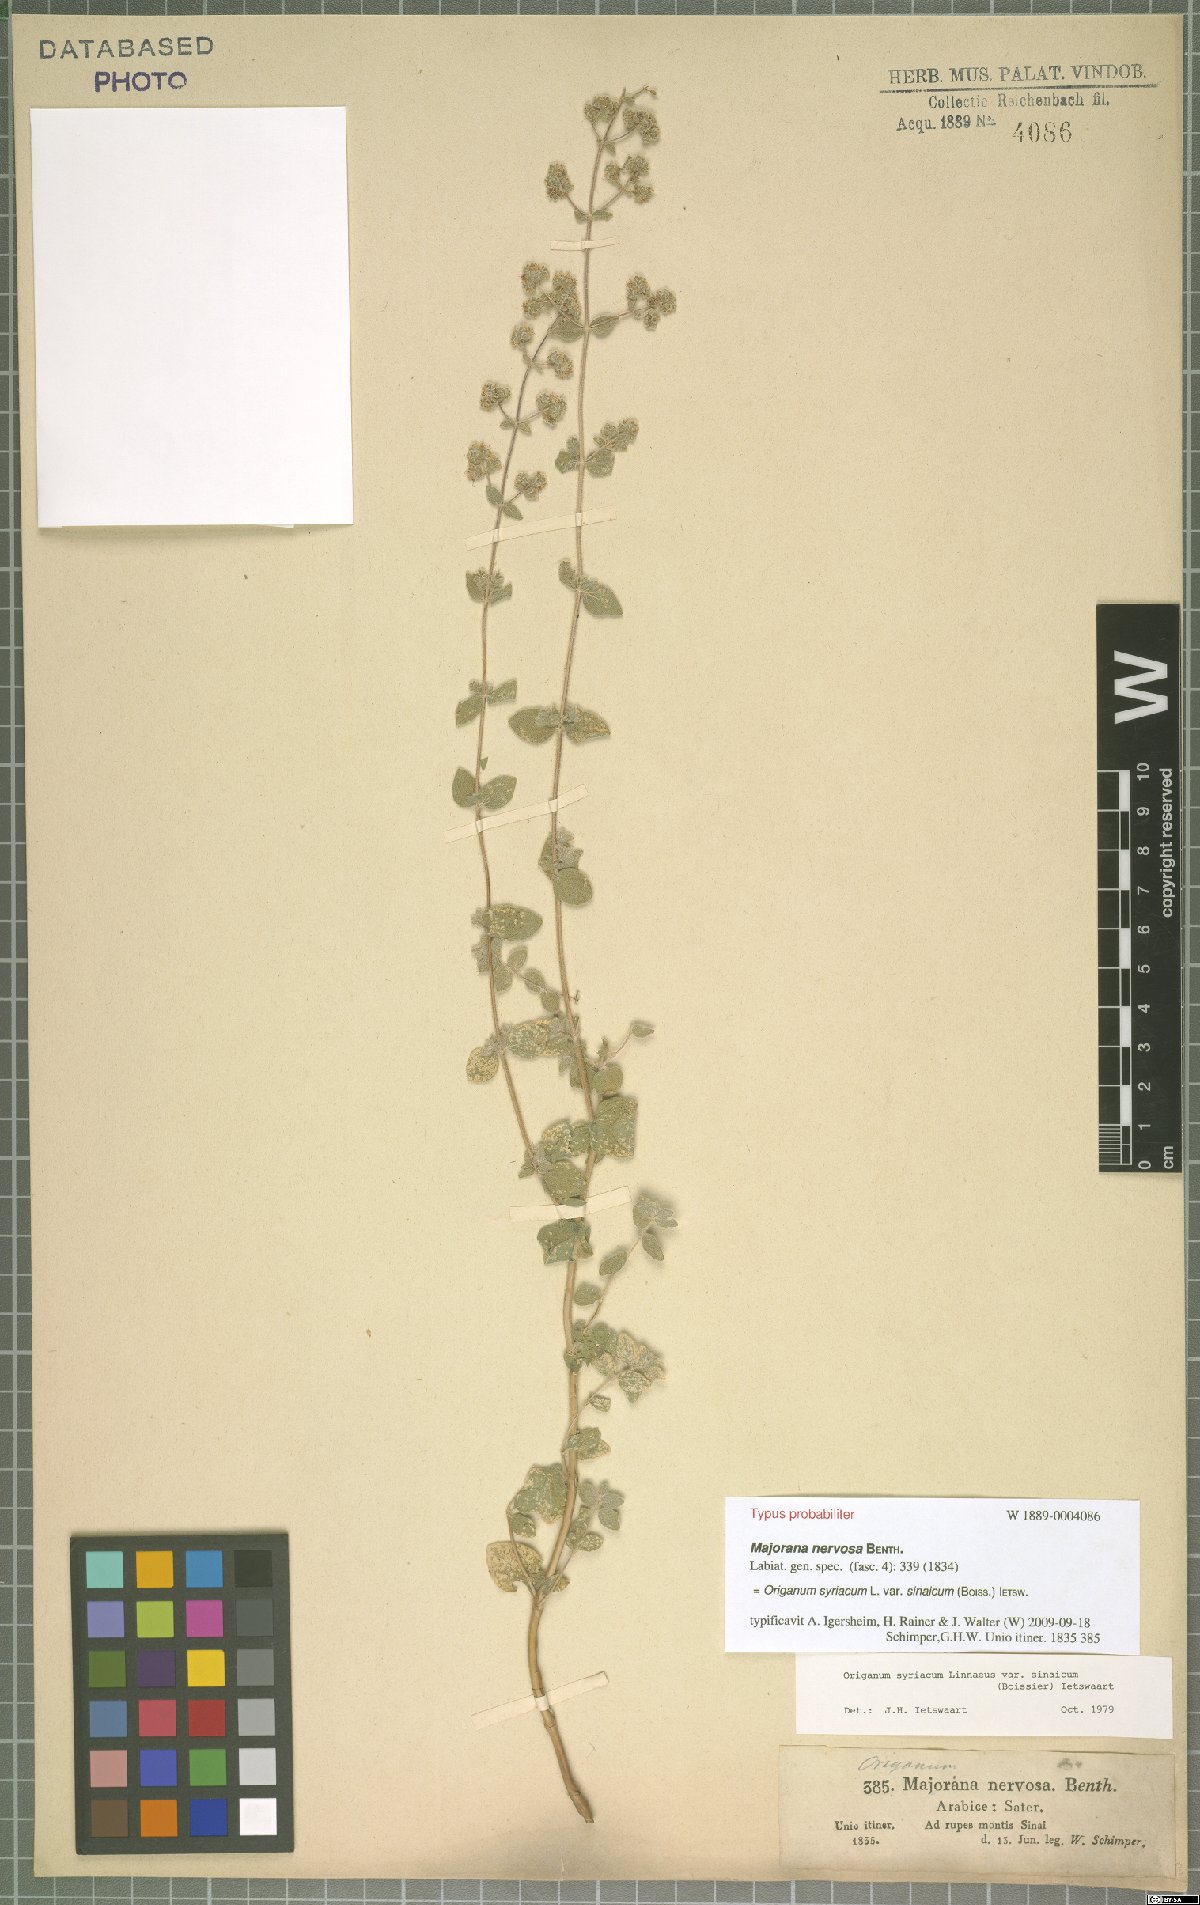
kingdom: Plantae
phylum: Tracheophyta
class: Magnoliopsida
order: Lamiales
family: Lamiaceae
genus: Origanum
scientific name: Origanum syriacum
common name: Biblical-hyssop
